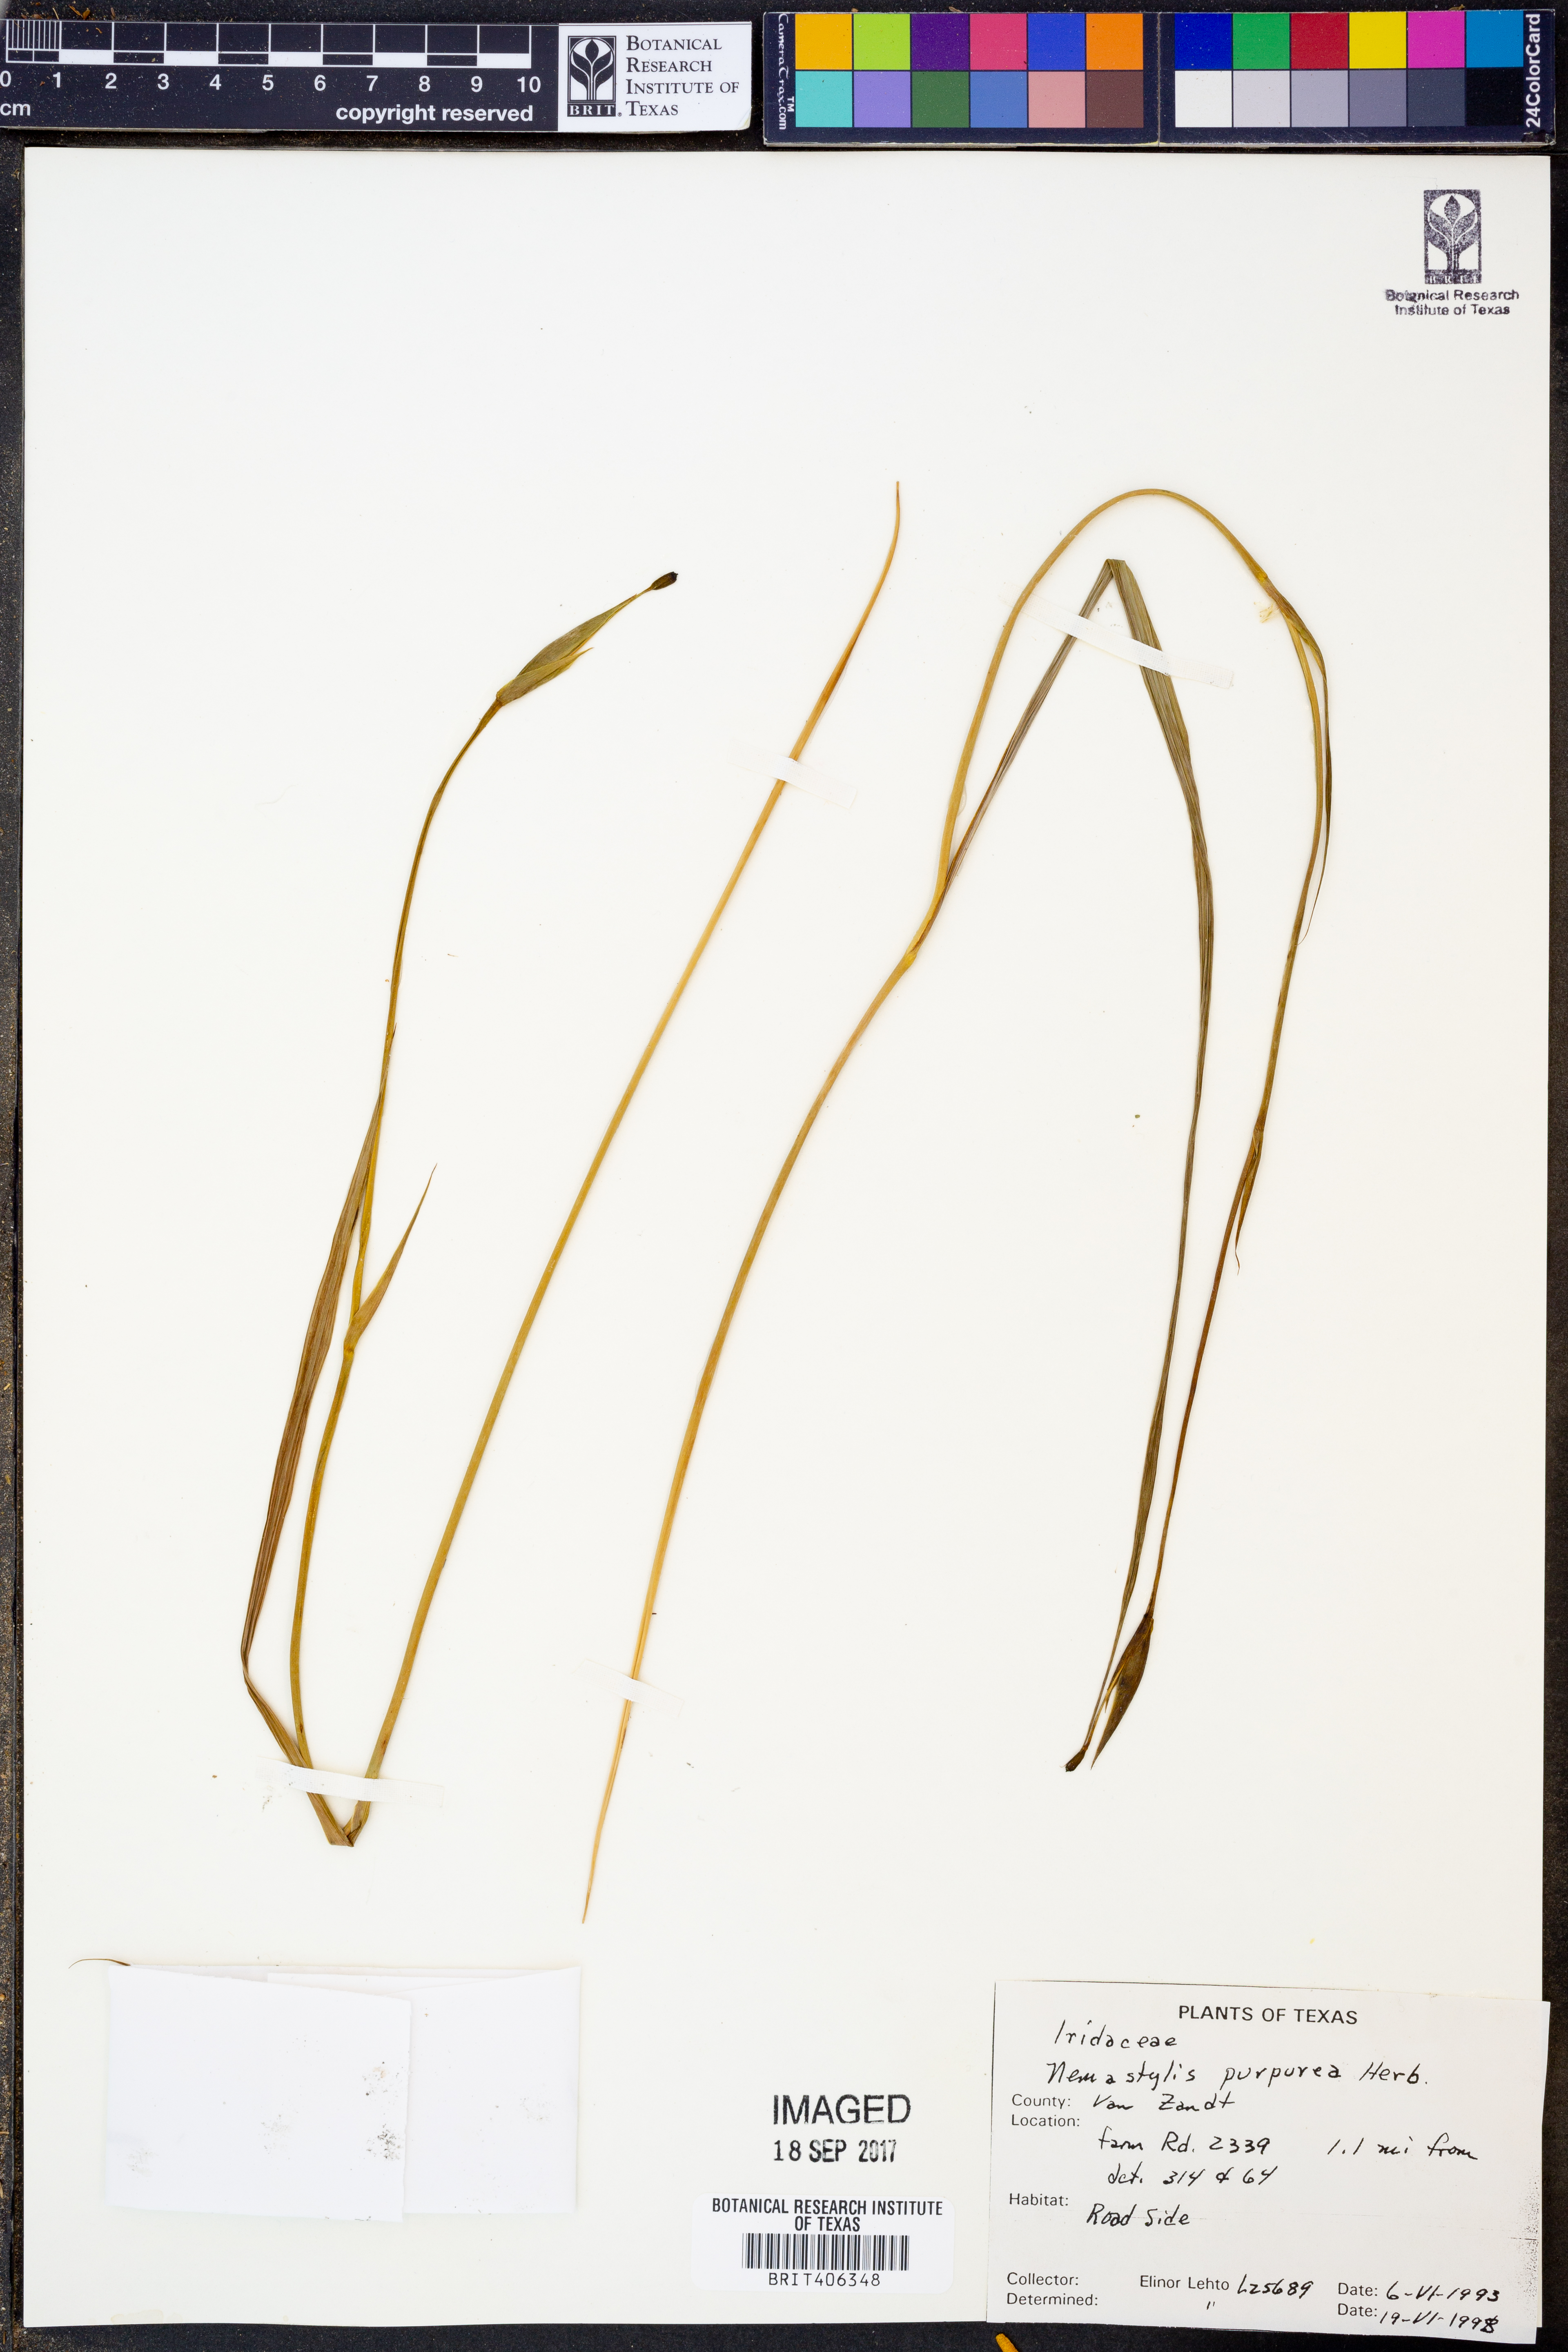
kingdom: Plantae
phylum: Tracheophyta
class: Liliopsida
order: Asparagales
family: Iridaceae
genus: Alophia
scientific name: Alophia drummondii
